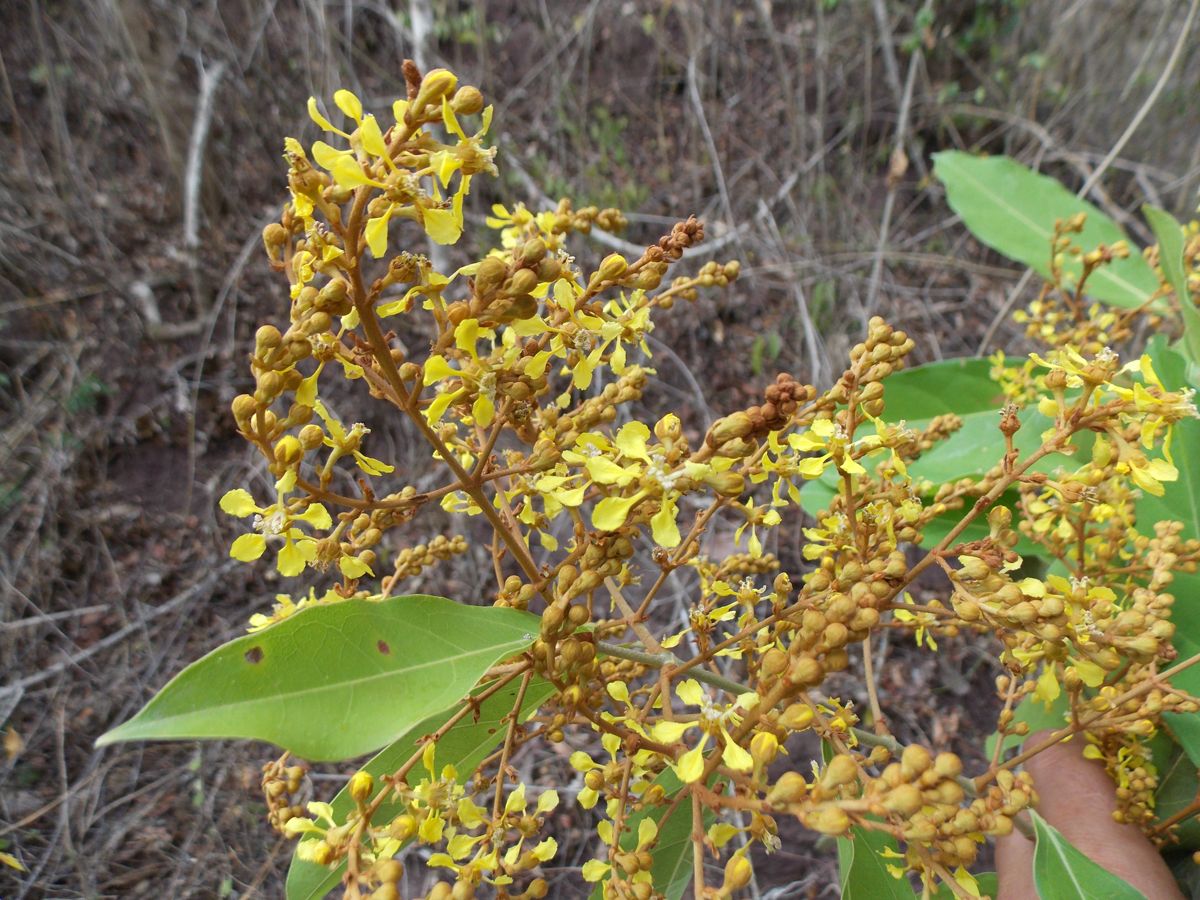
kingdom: Plantae
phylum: Tracheophyta
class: Magnoliopsida
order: Malpighiales
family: Malpighiaceae
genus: Heteropterys
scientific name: Heteropterys laurifolia
